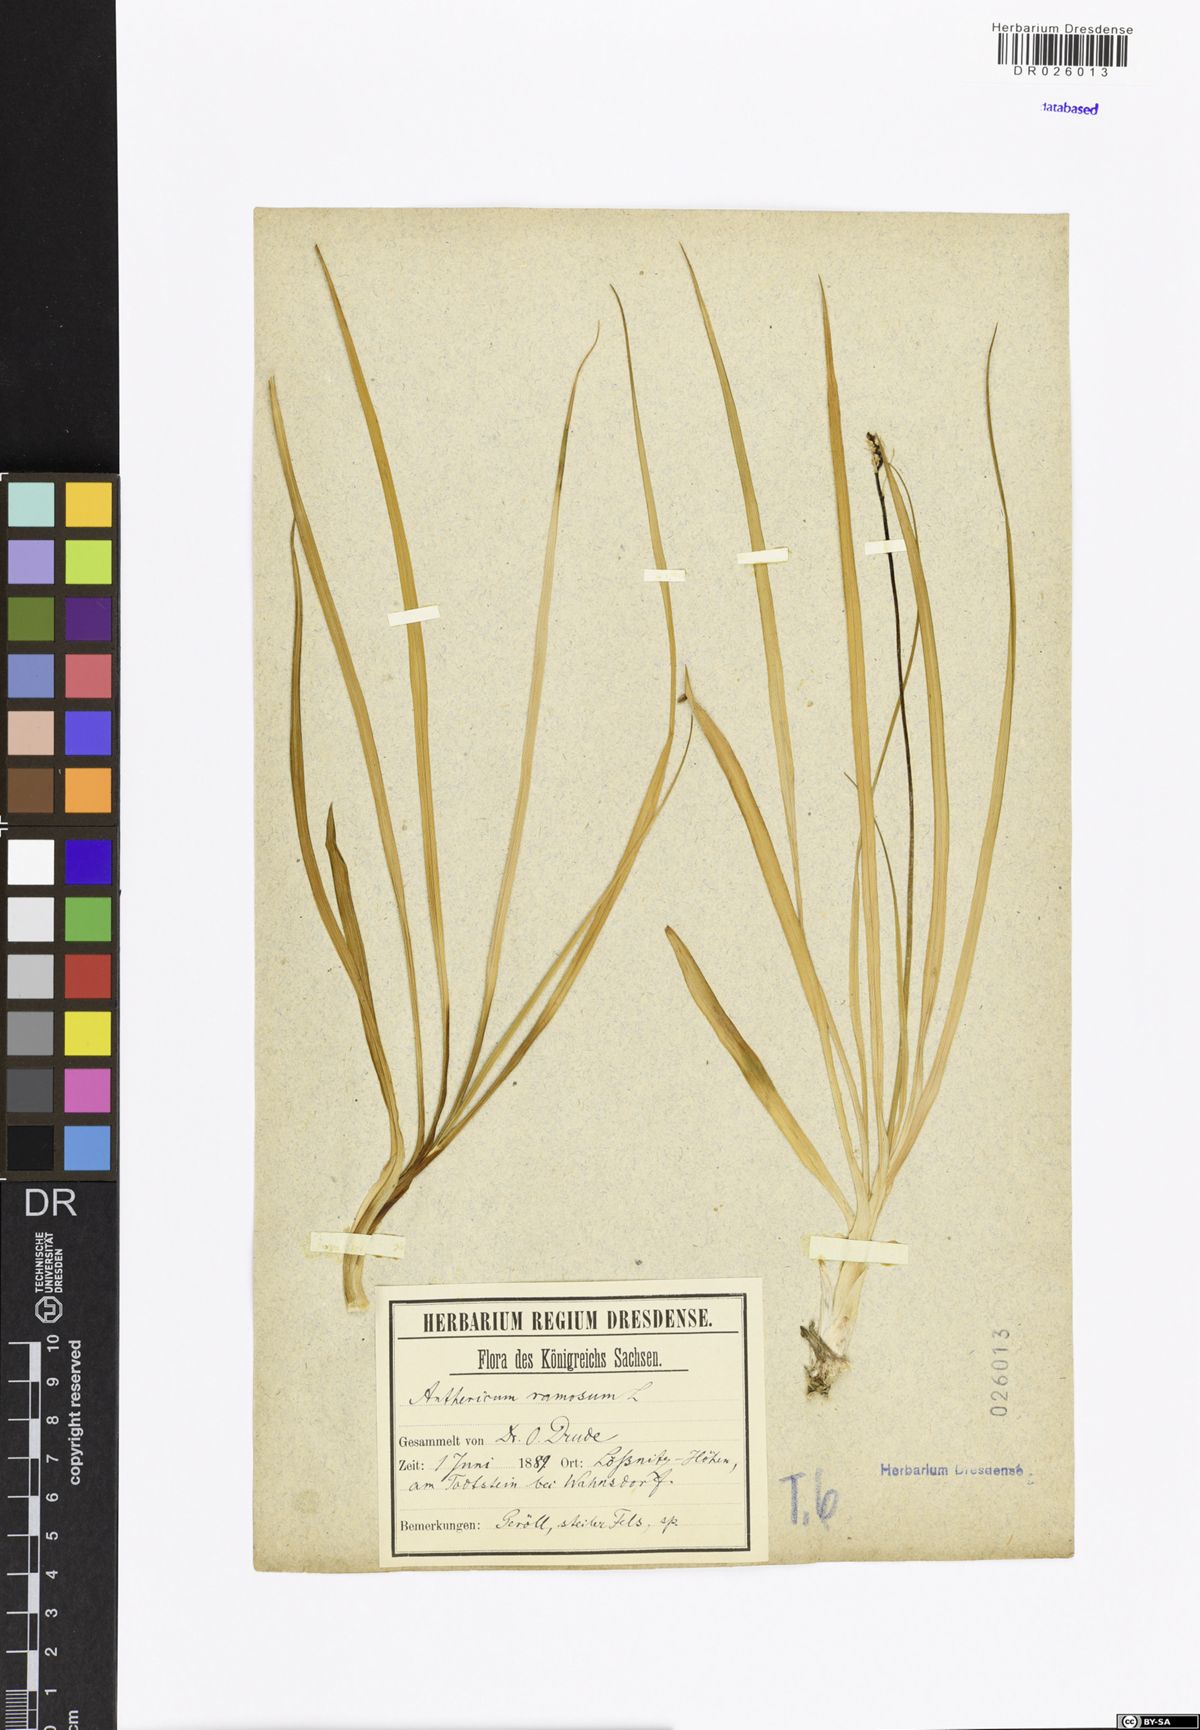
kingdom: Plantae
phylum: Tracheophyta
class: Liliopsida
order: Asparagales
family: Asparagaceae
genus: Anthericum
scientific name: Anthericum ramosum
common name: Branched st. bernard's-lily
